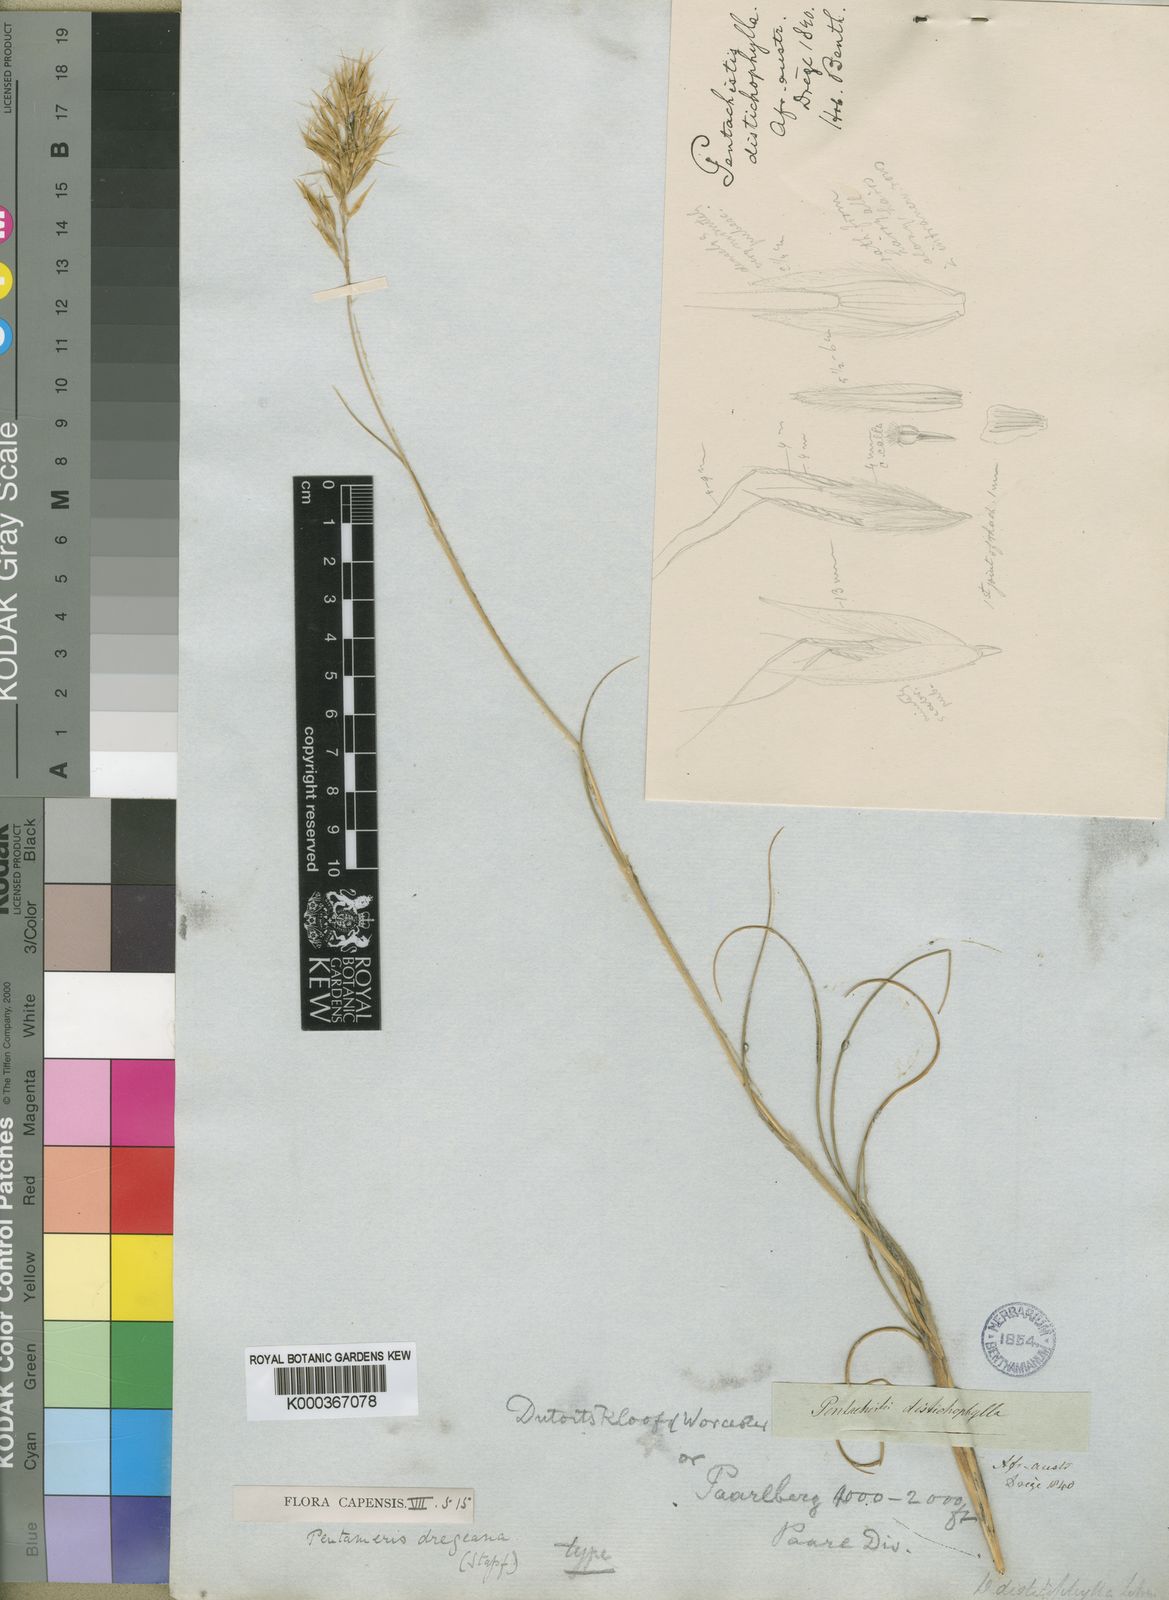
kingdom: Plantae
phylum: Tracheophyta
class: Liliopsida
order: Poales
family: Poaceae
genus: Pentameris
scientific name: Pentameris dregeana
